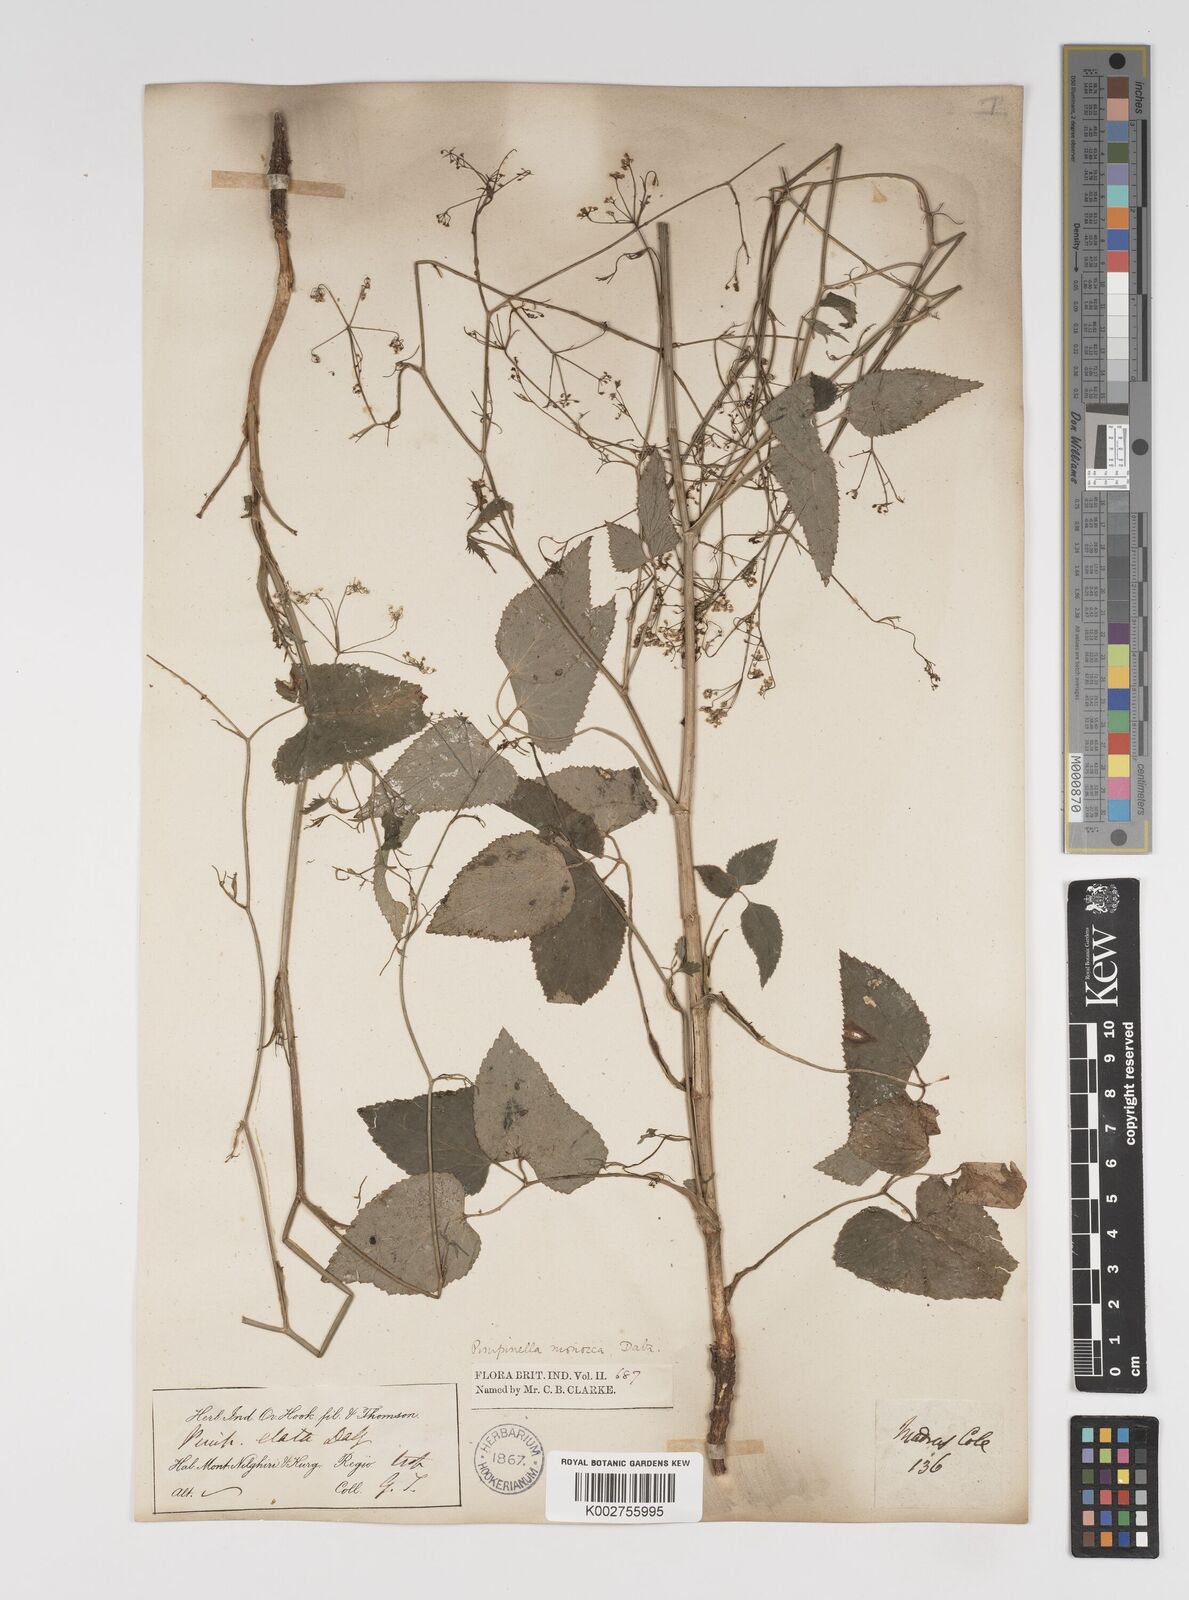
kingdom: Plantae
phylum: Tracheophyta
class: Magnoliopsida
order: Apiales
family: Apiaceae
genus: Pimpinella
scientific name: Pimpinella wallichiana
